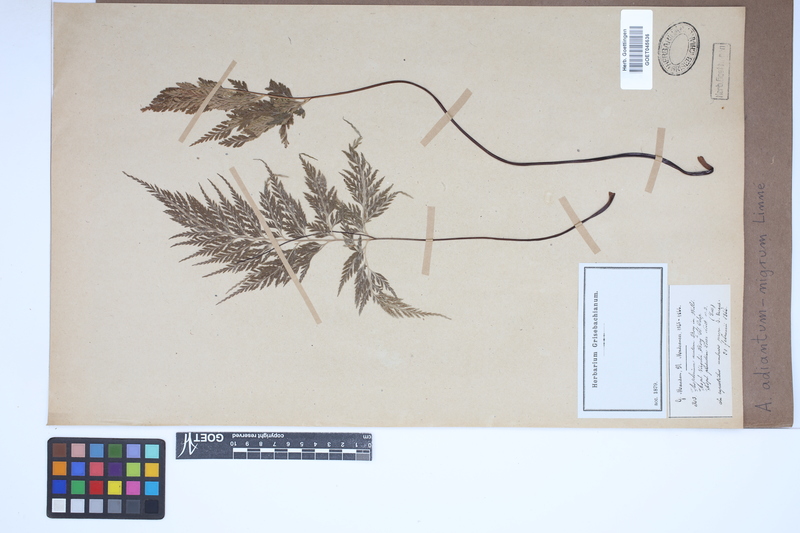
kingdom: Plantae
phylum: Tracheophyta
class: Polypodiopsida
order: Polypodiales
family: Aspleniaceae
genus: Asplenium
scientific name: Asplenium adiantum-nigrum
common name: Black spleenwort
